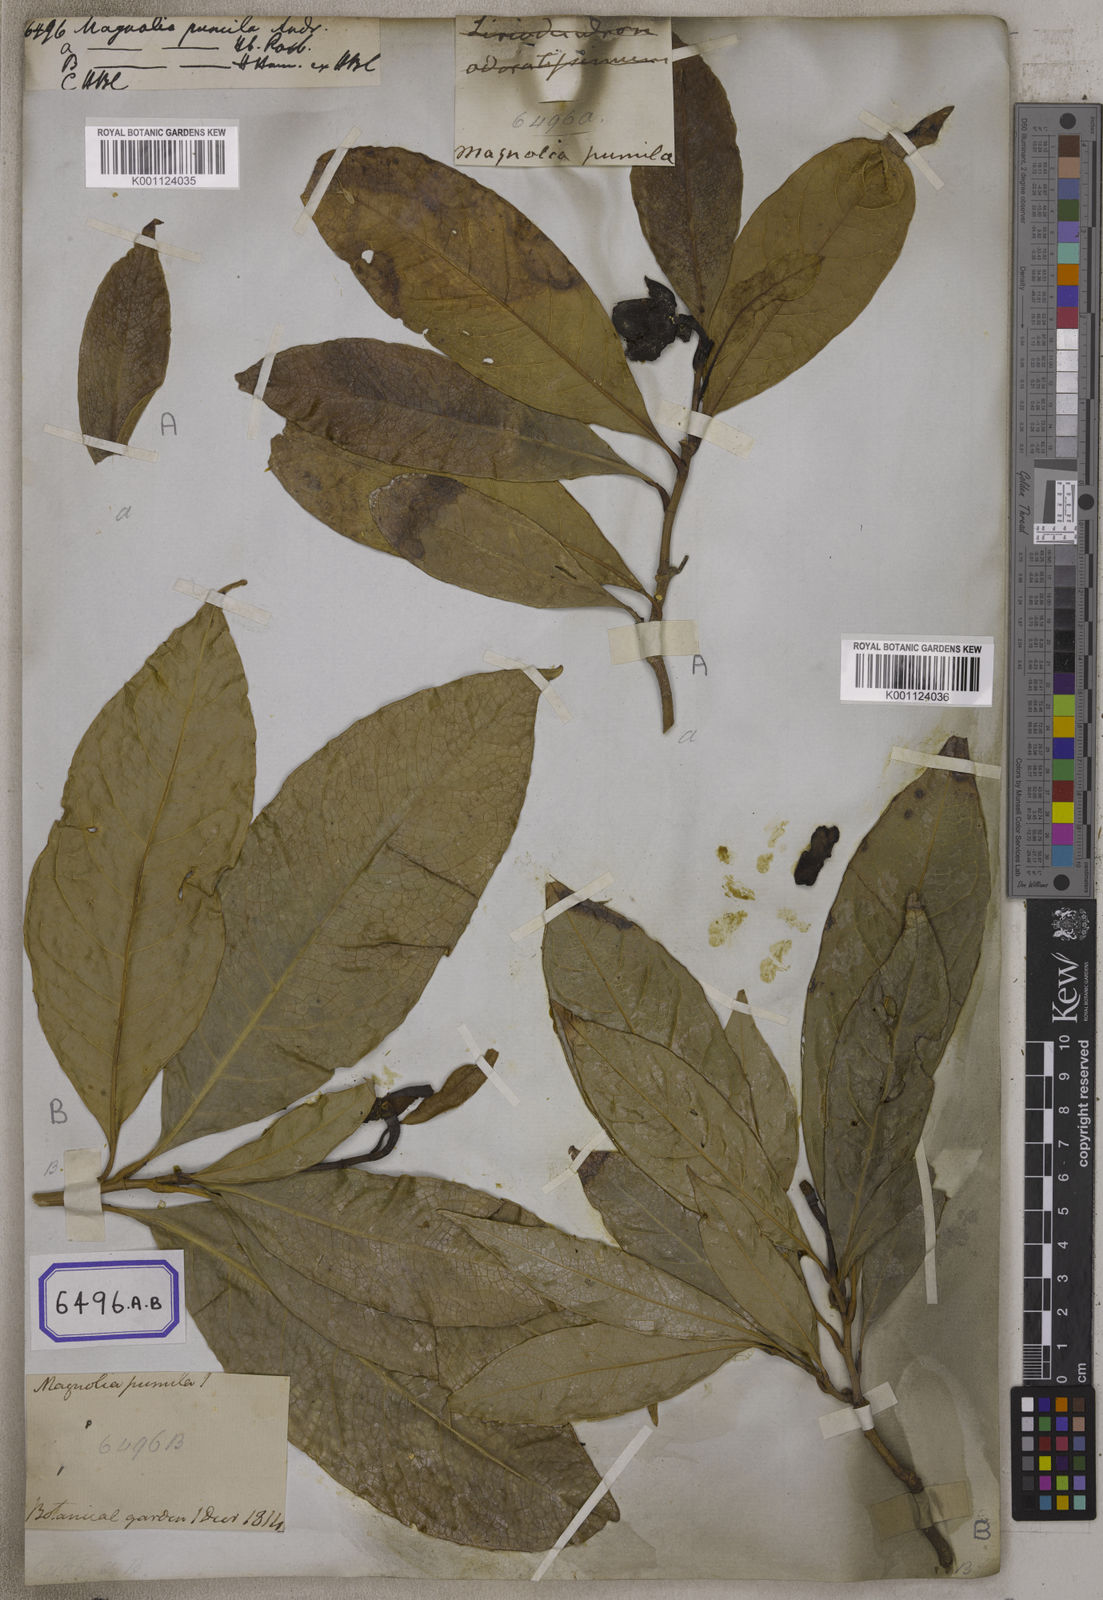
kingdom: Plantae
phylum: Tracheophyta
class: Magnoliopsida
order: Magnoliales
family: Magnoliaceae
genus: Magnolia
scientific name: Magnolia liliifera
